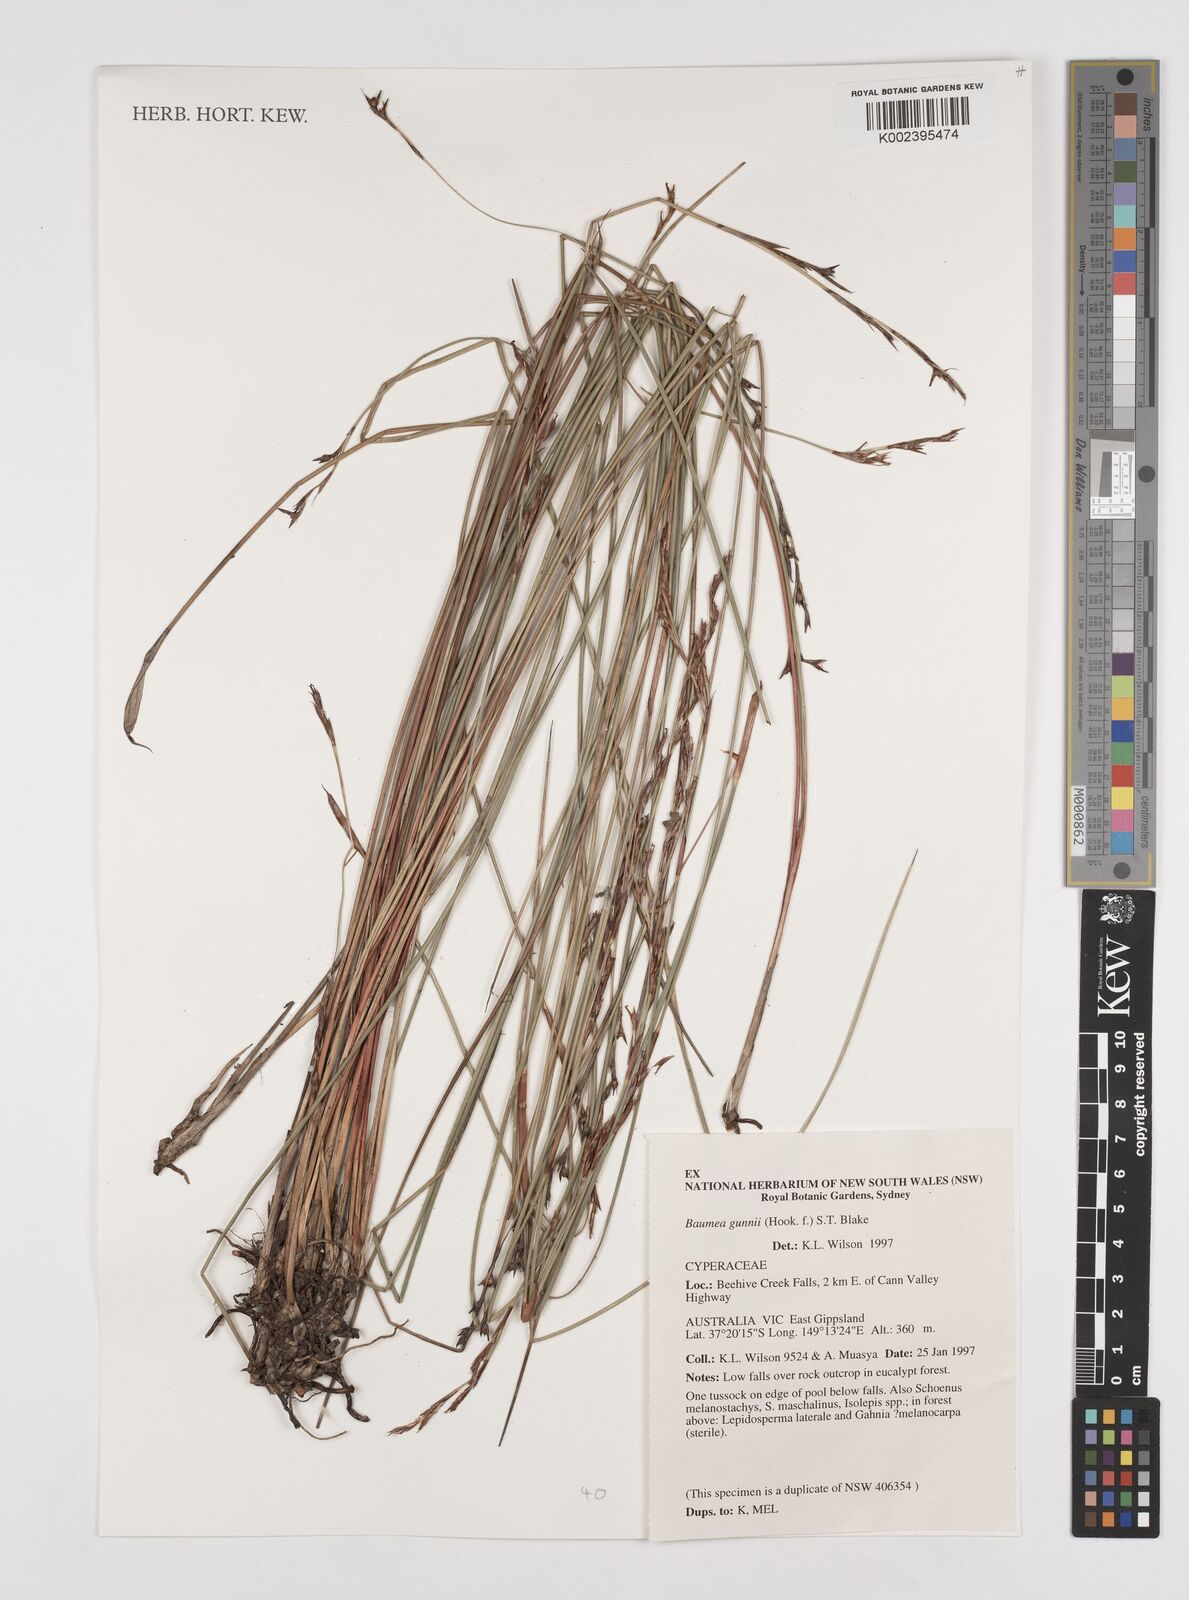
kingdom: Plantae
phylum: Tracheophyta
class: Liliopsida
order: Poales
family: Cyperaceae
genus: Machaerina
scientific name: Machaerina gunnii
